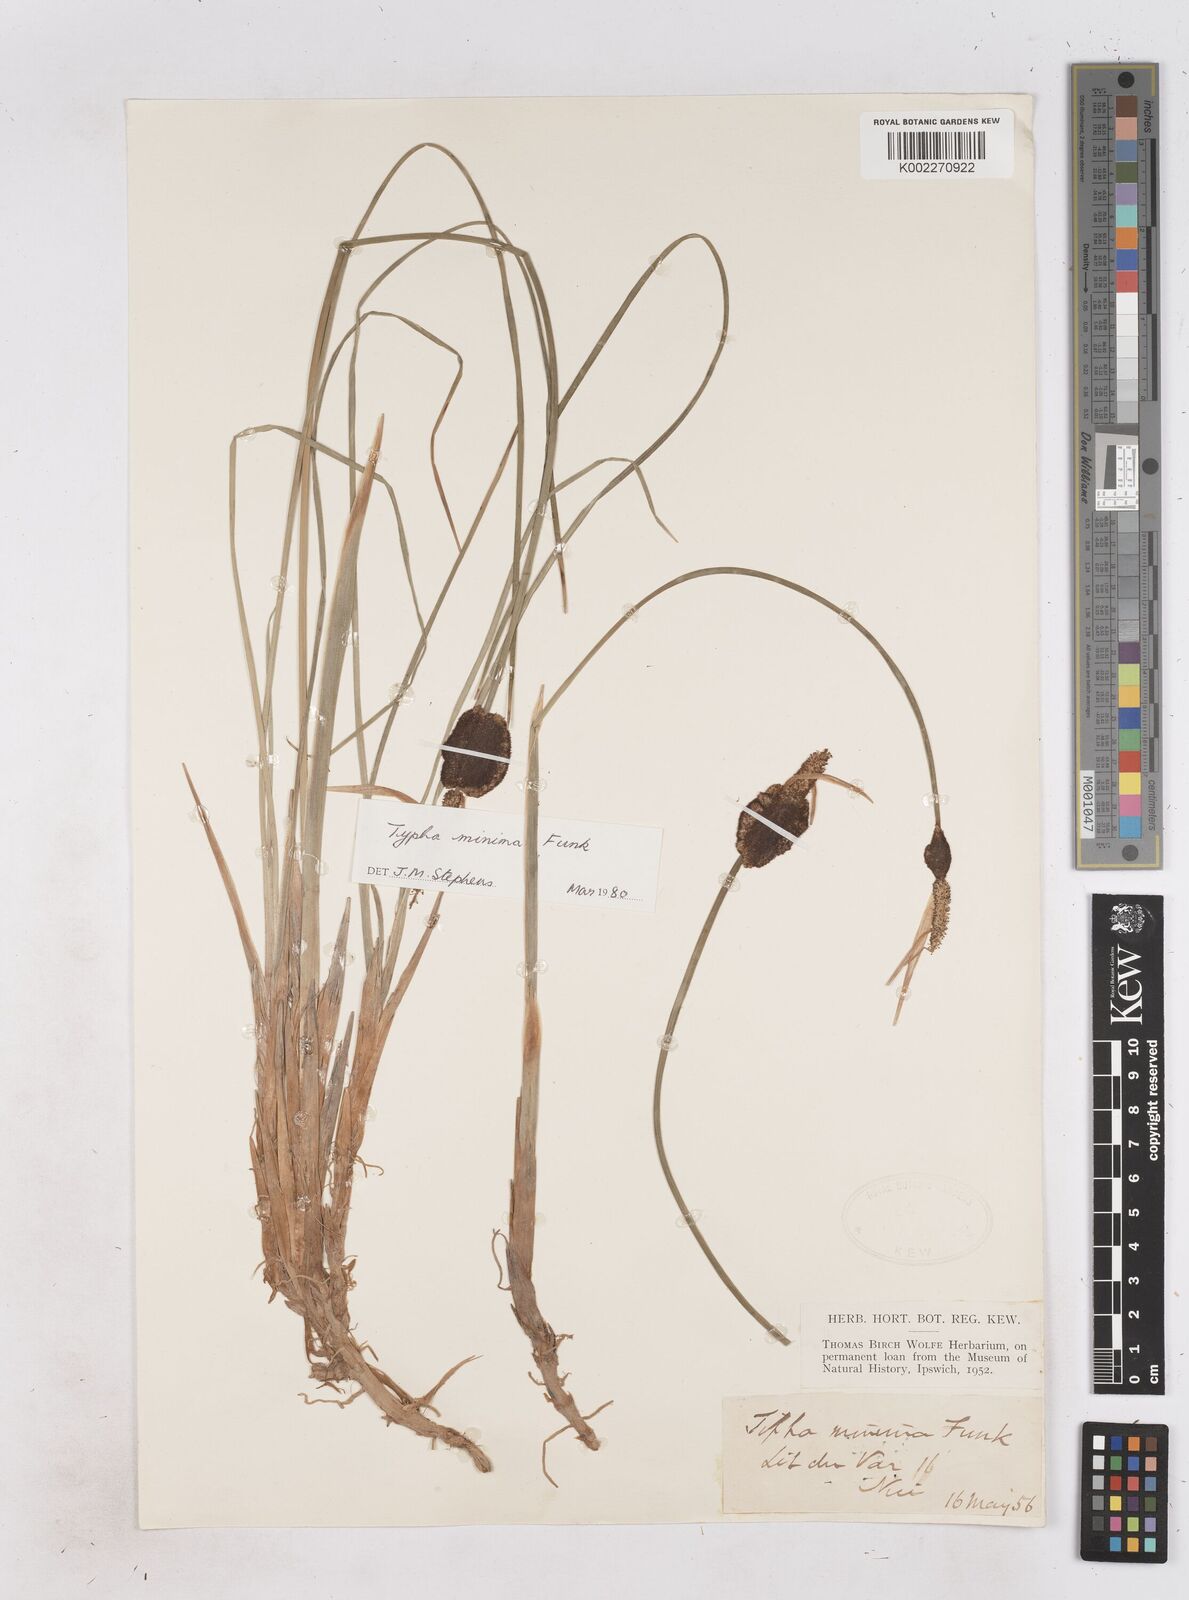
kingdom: Plantae
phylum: Tracheophyta
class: Liliopsida
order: Poales
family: Typhaceae
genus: Typha
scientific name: Typha
